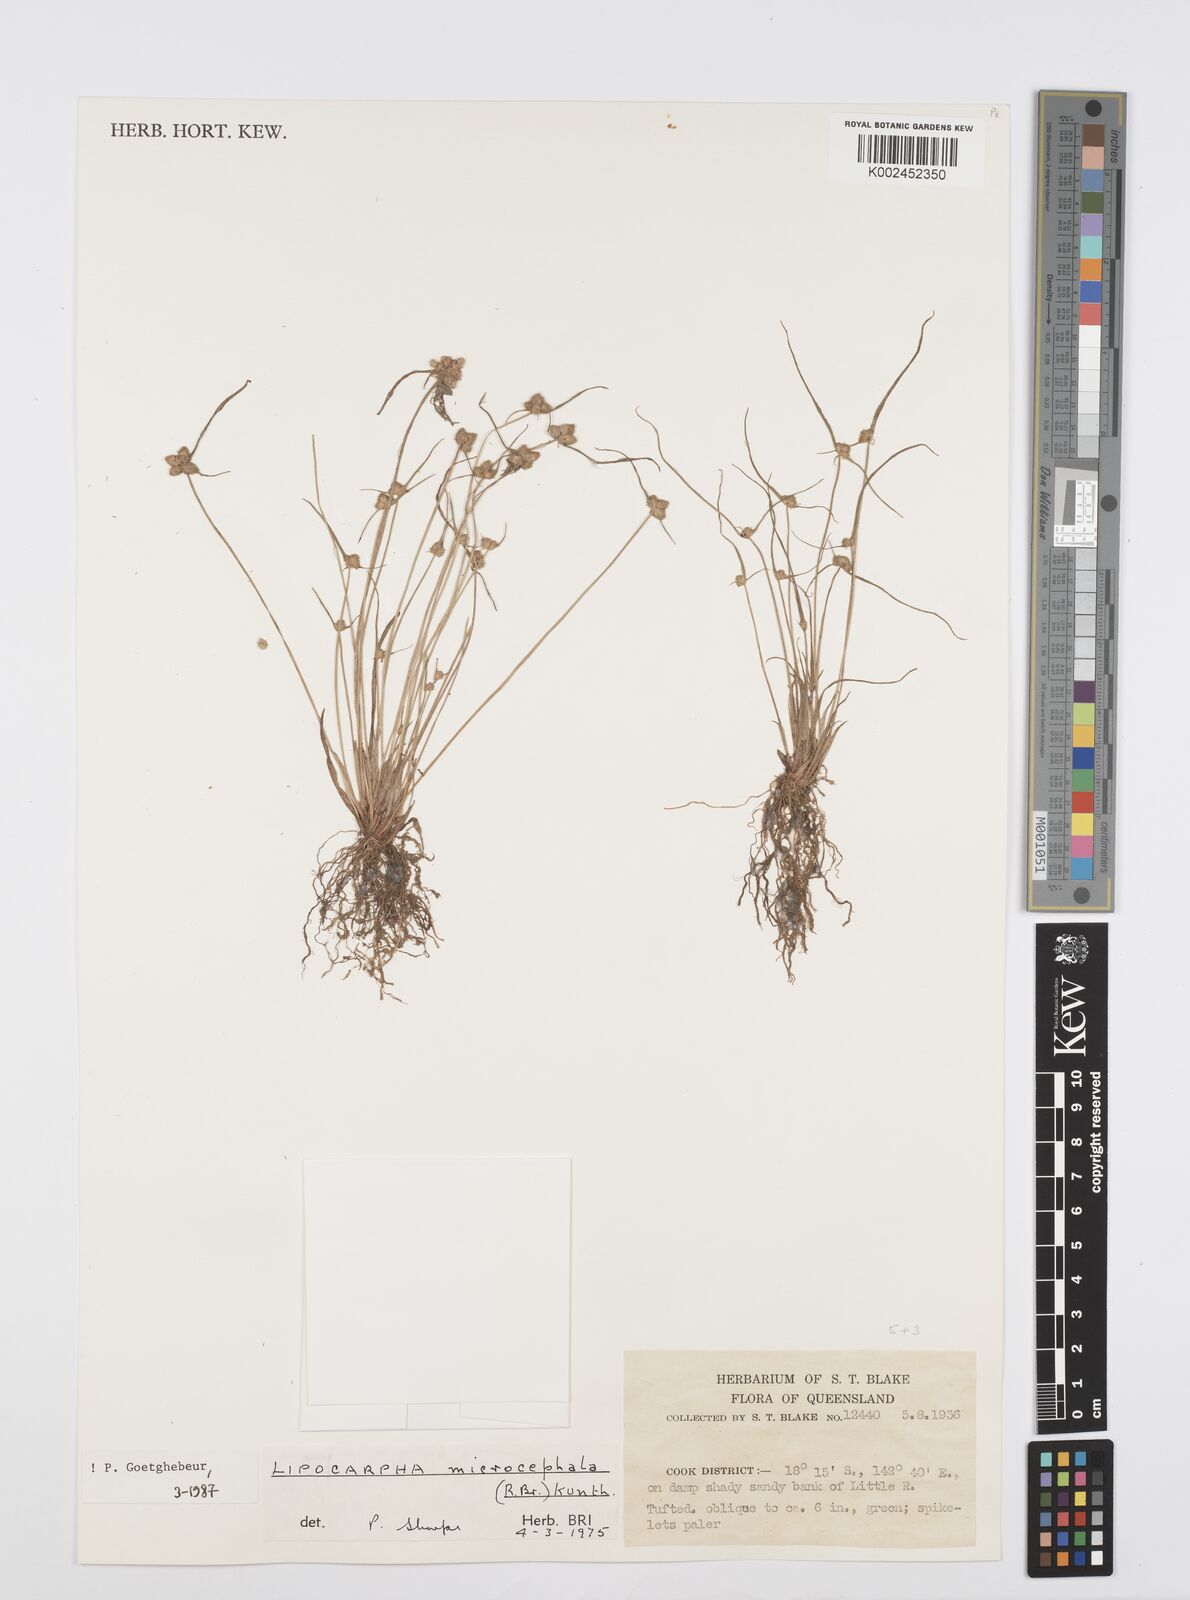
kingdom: Plantae
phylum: Tracheophyta
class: Liliopsida
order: Poales
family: Cyperaceae
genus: Cyperus
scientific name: Cyperus microcephalus
